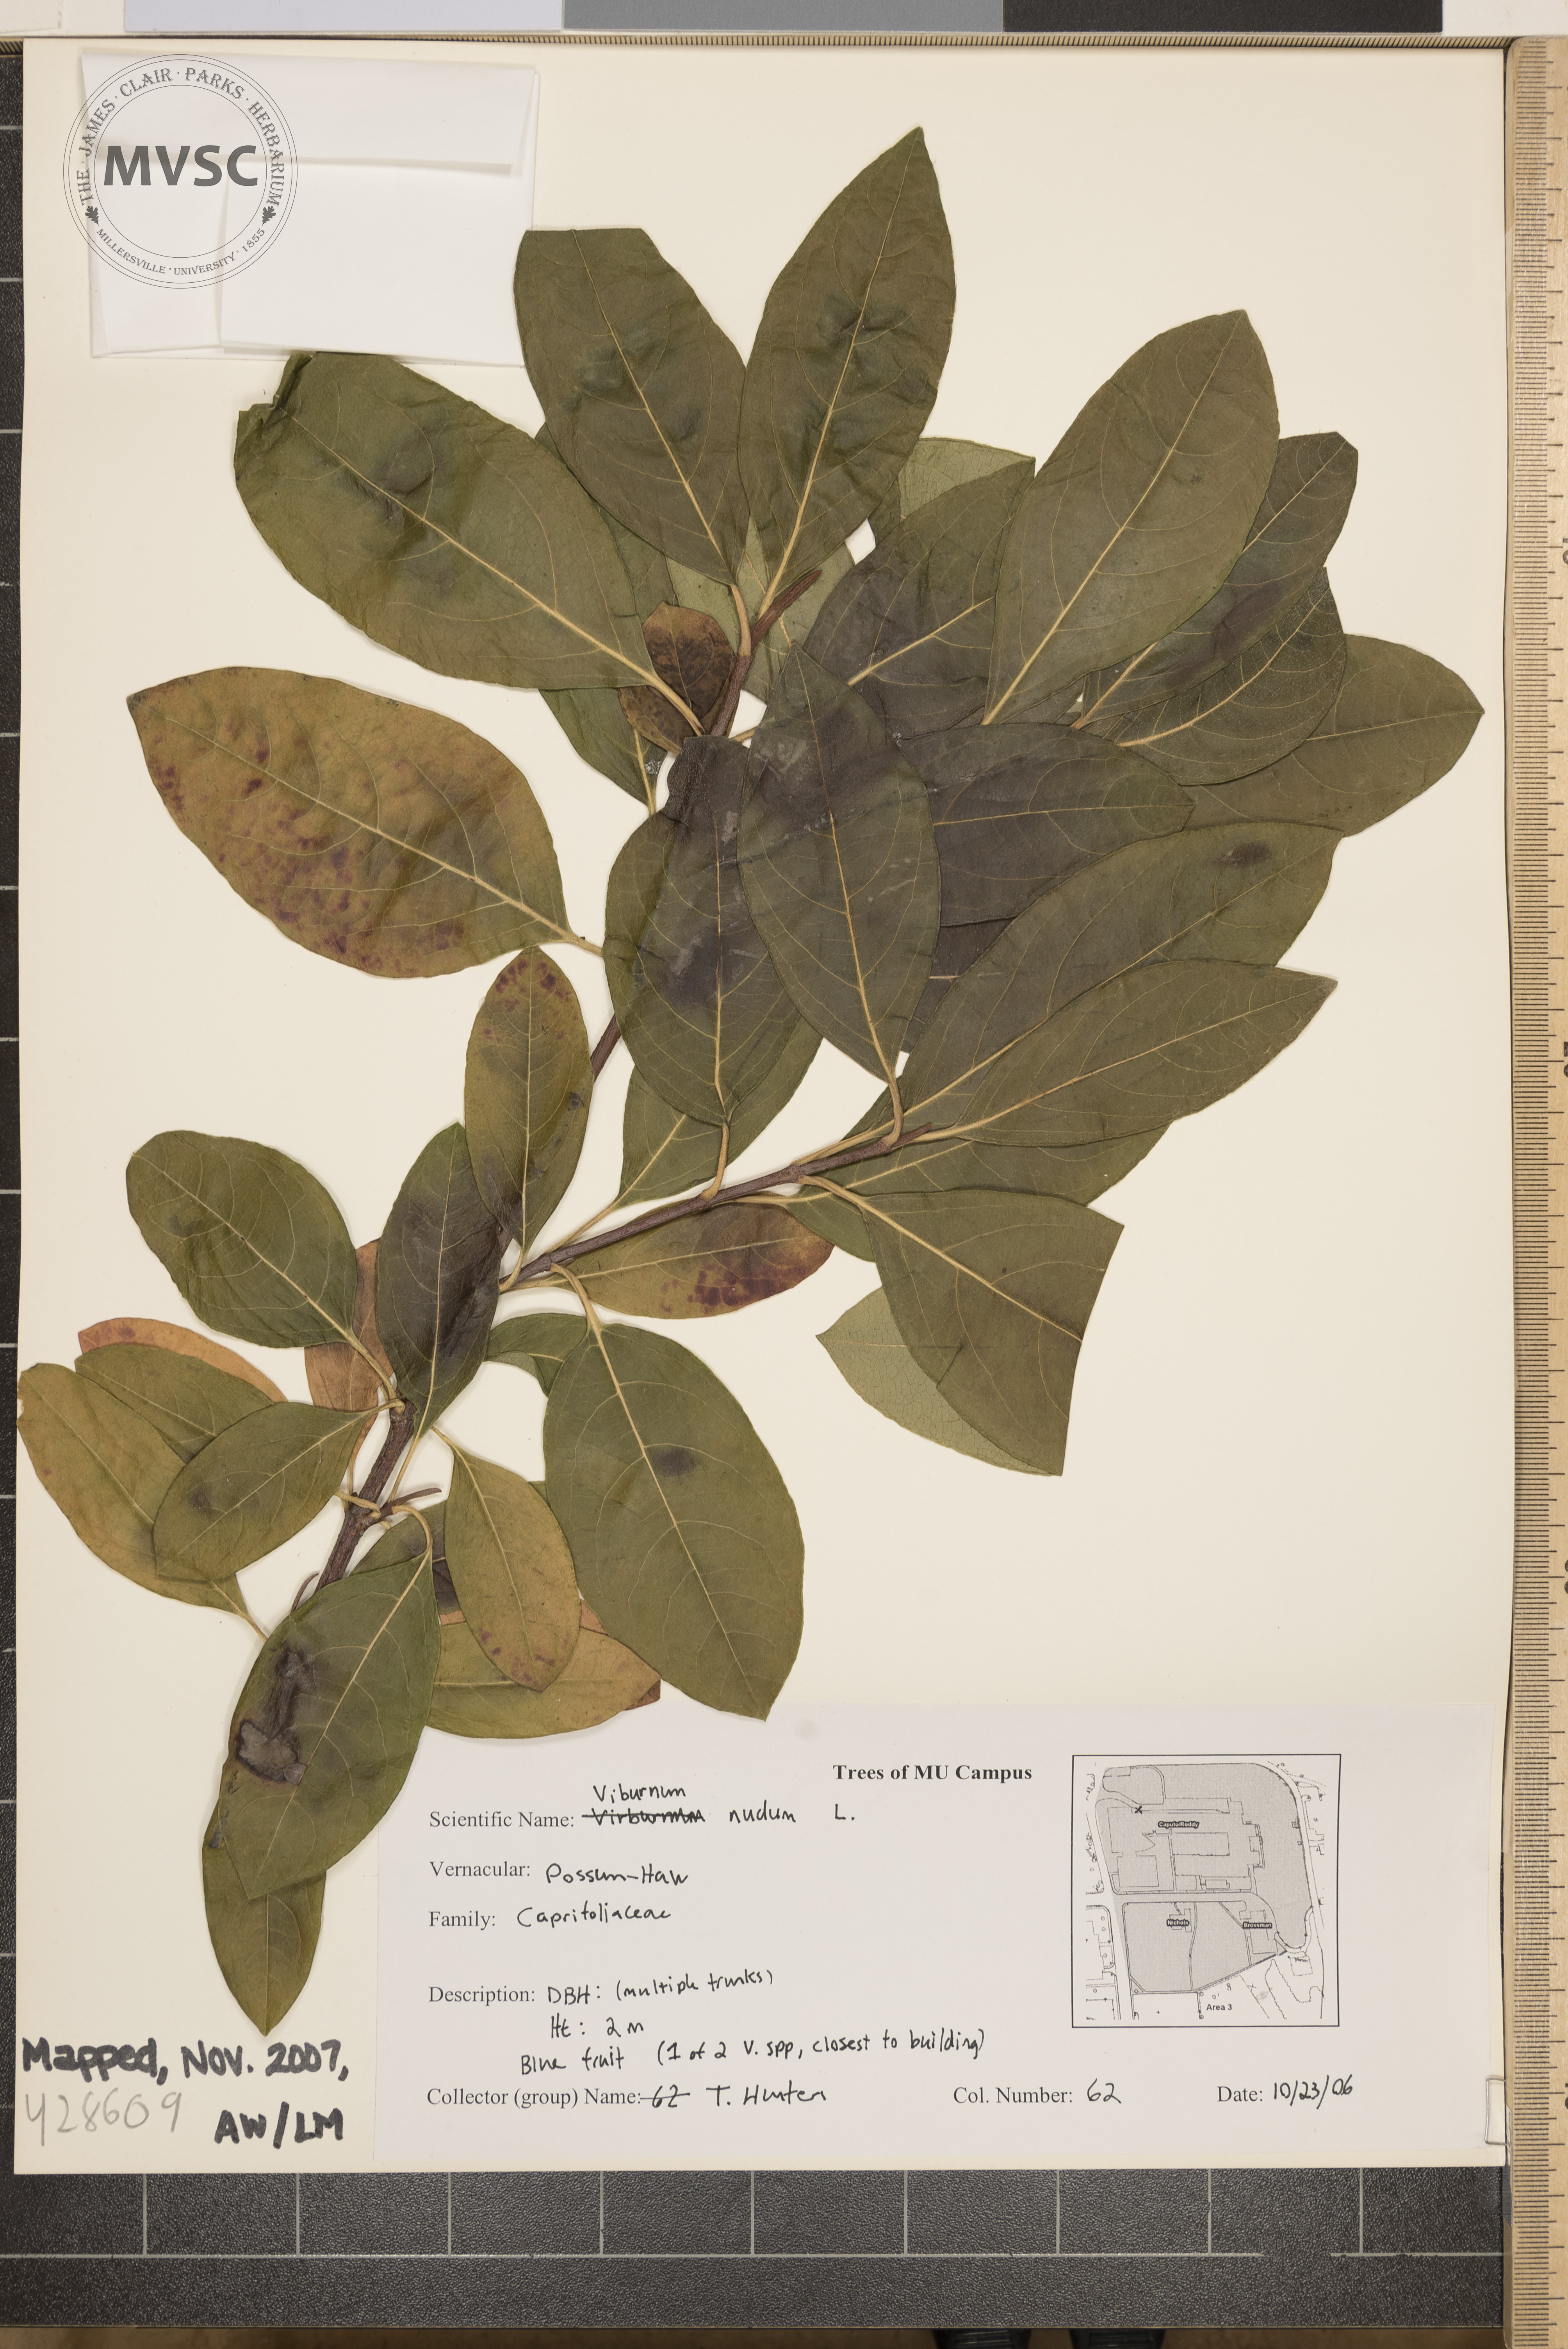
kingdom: Plantae
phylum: Tracheophyta
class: Magnoliopsida
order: Dipsacales
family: Viburnaceae
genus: Viburnum
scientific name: Viburnum nudum
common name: Possum-haw
